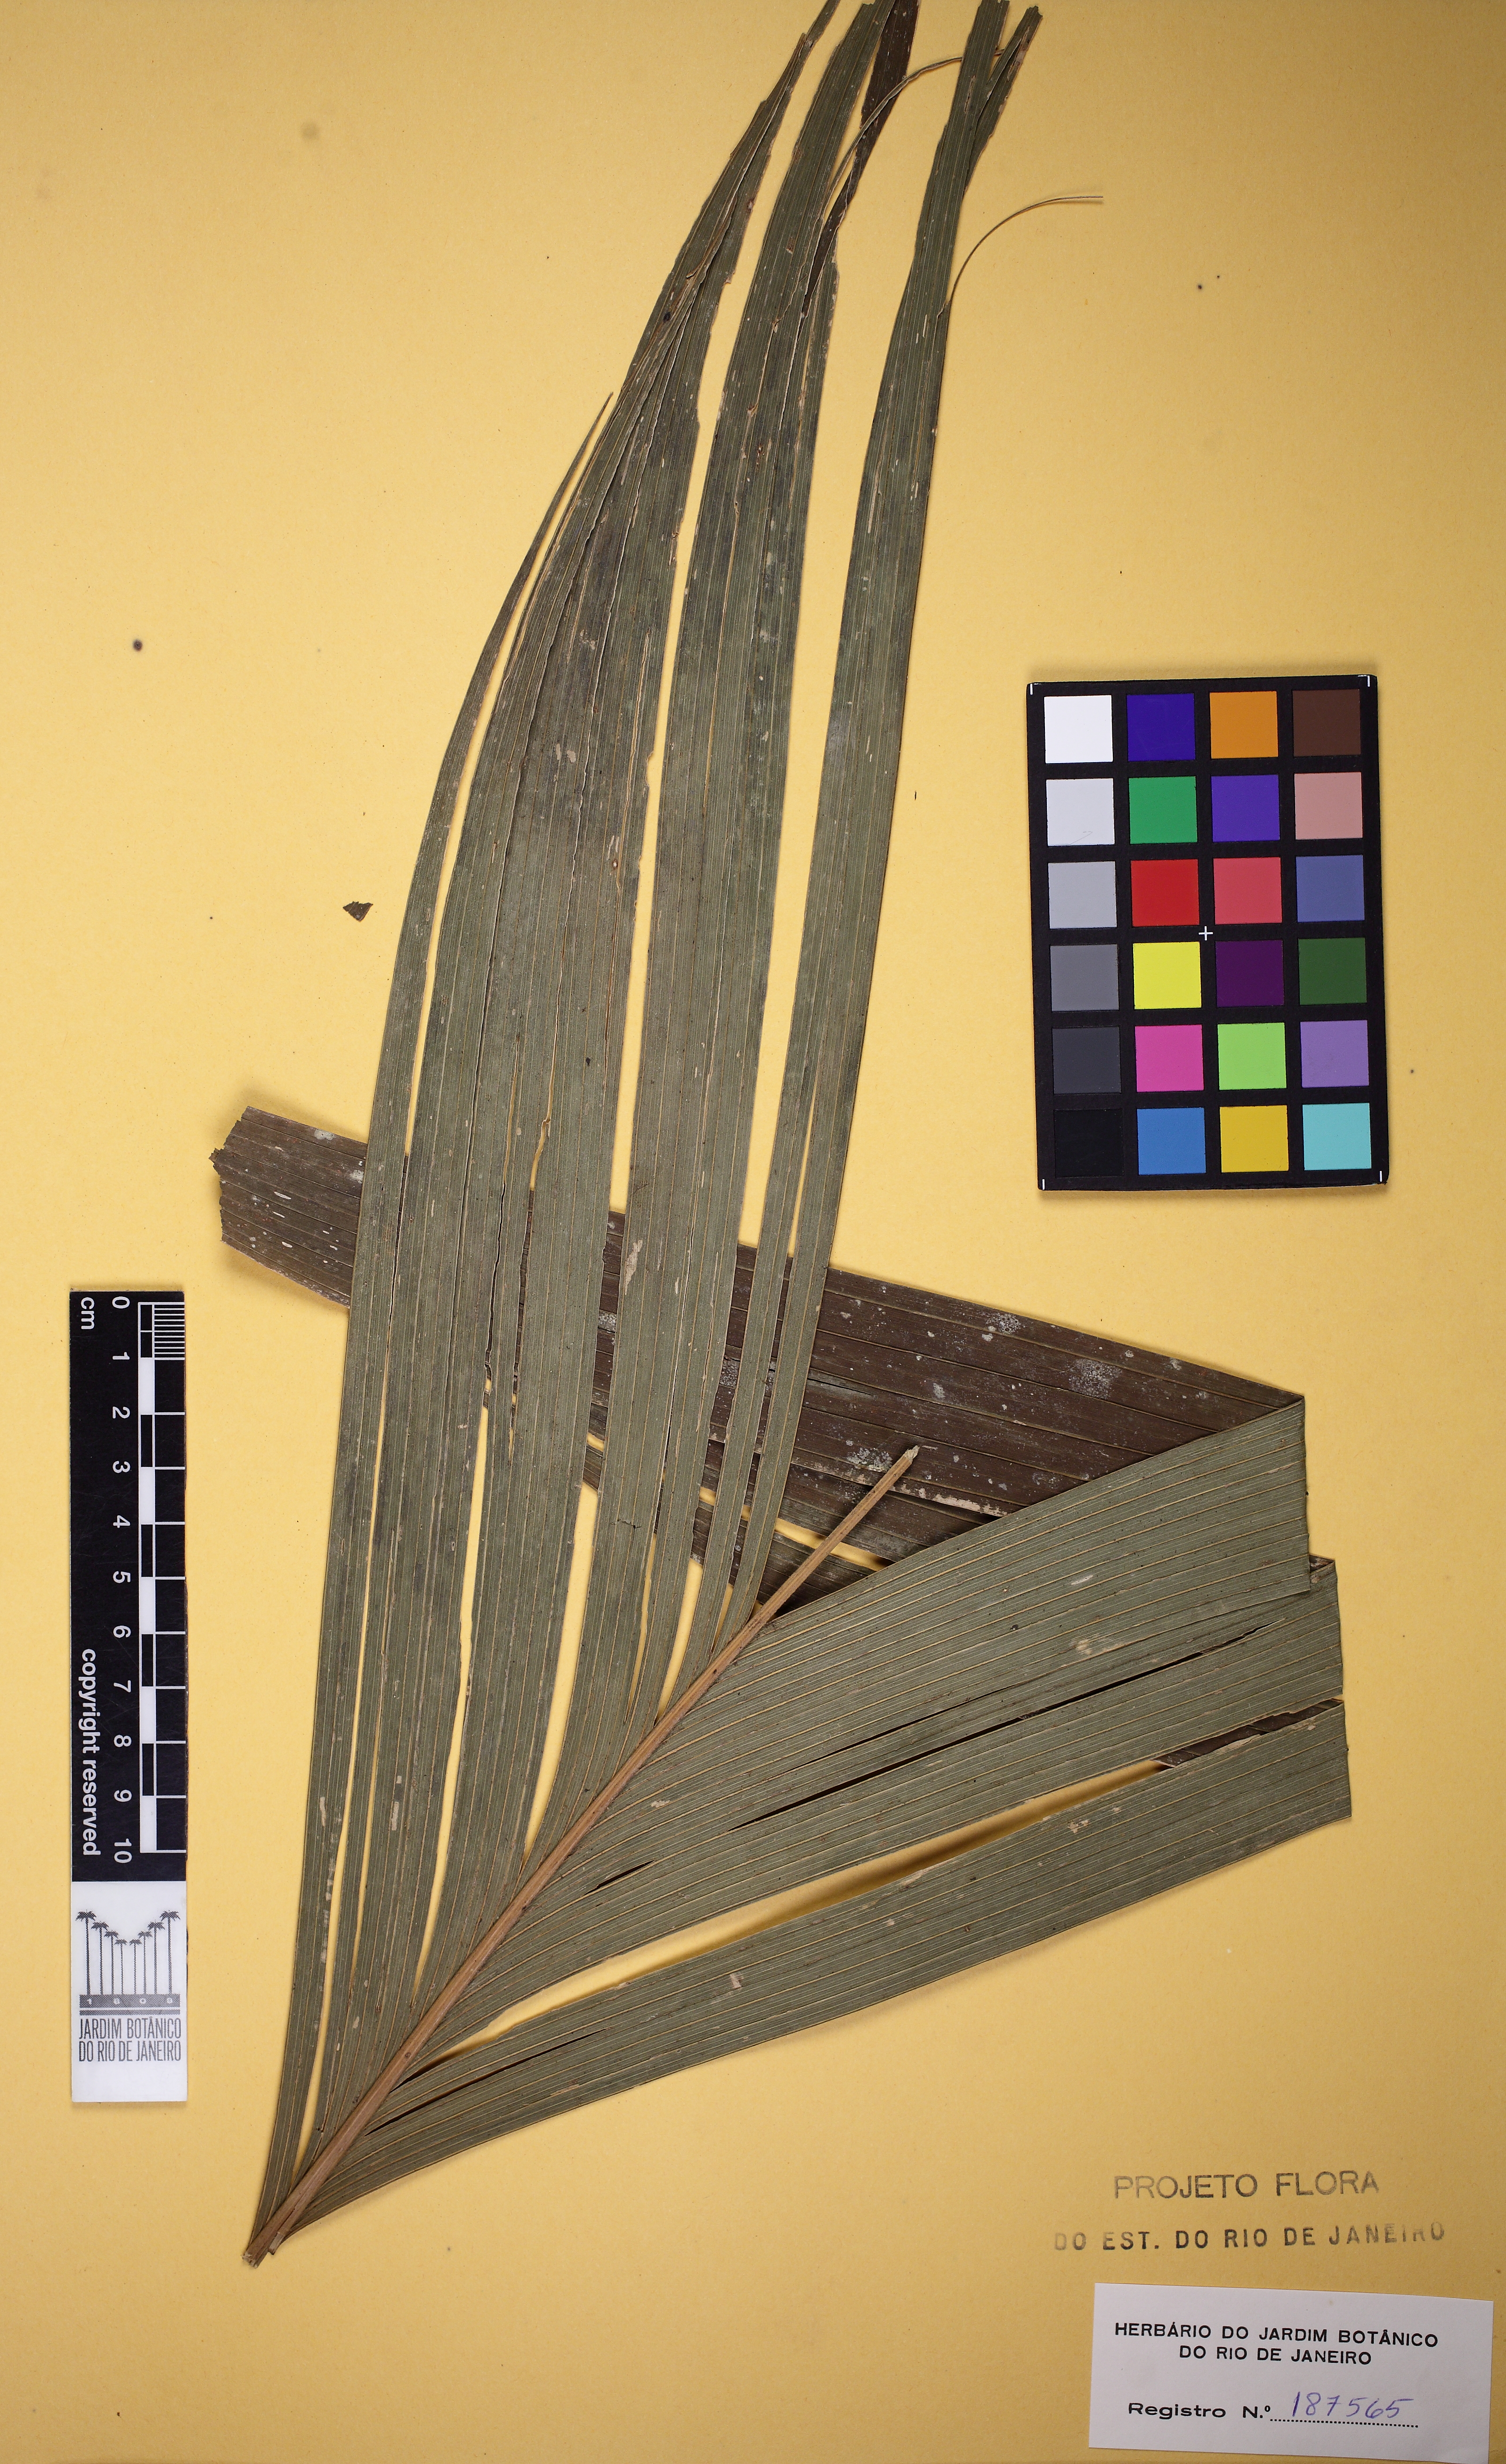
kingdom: Plantae
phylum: Tracheophyta
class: Liliopsida
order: Arecales
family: Arecaceae
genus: Geonoma
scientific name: Geonoma pohliana
